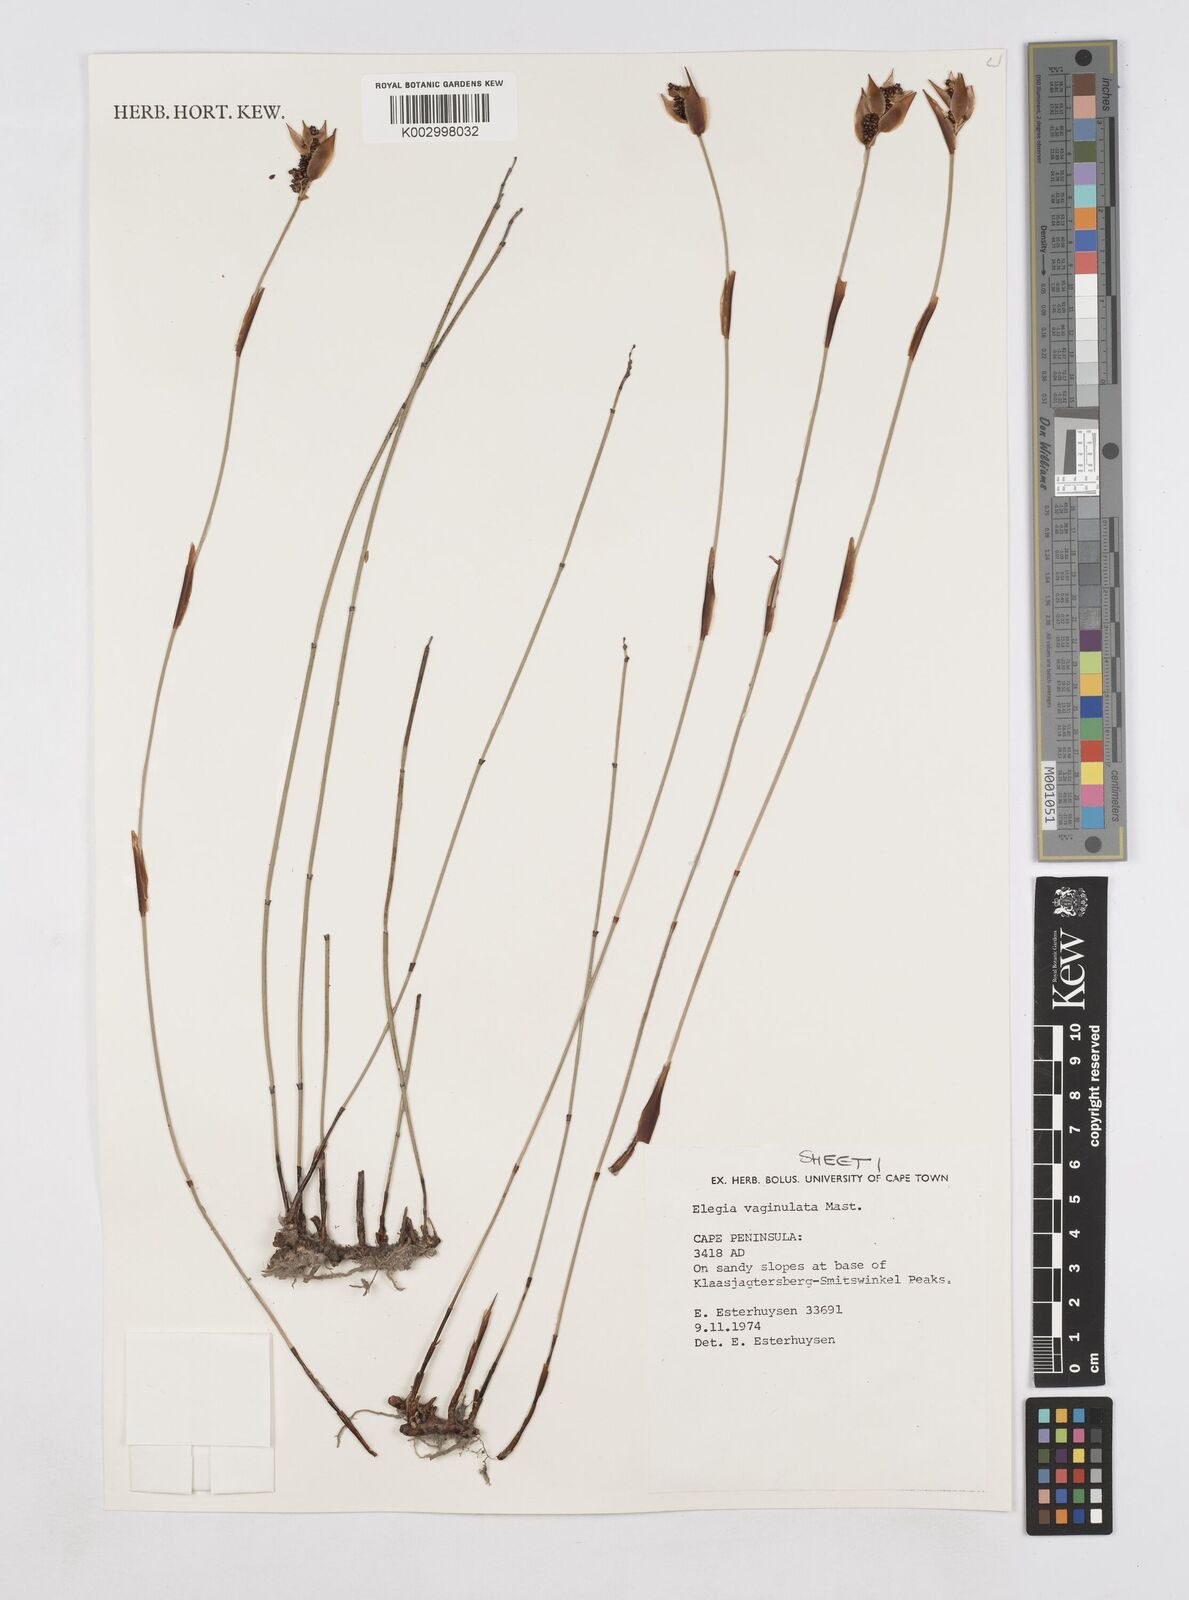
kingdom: Plantae
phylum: Tracheophyta
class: Liliopsida
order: Poales
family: Restionaceae
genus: Elegia
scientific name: Elegia vaginulata
